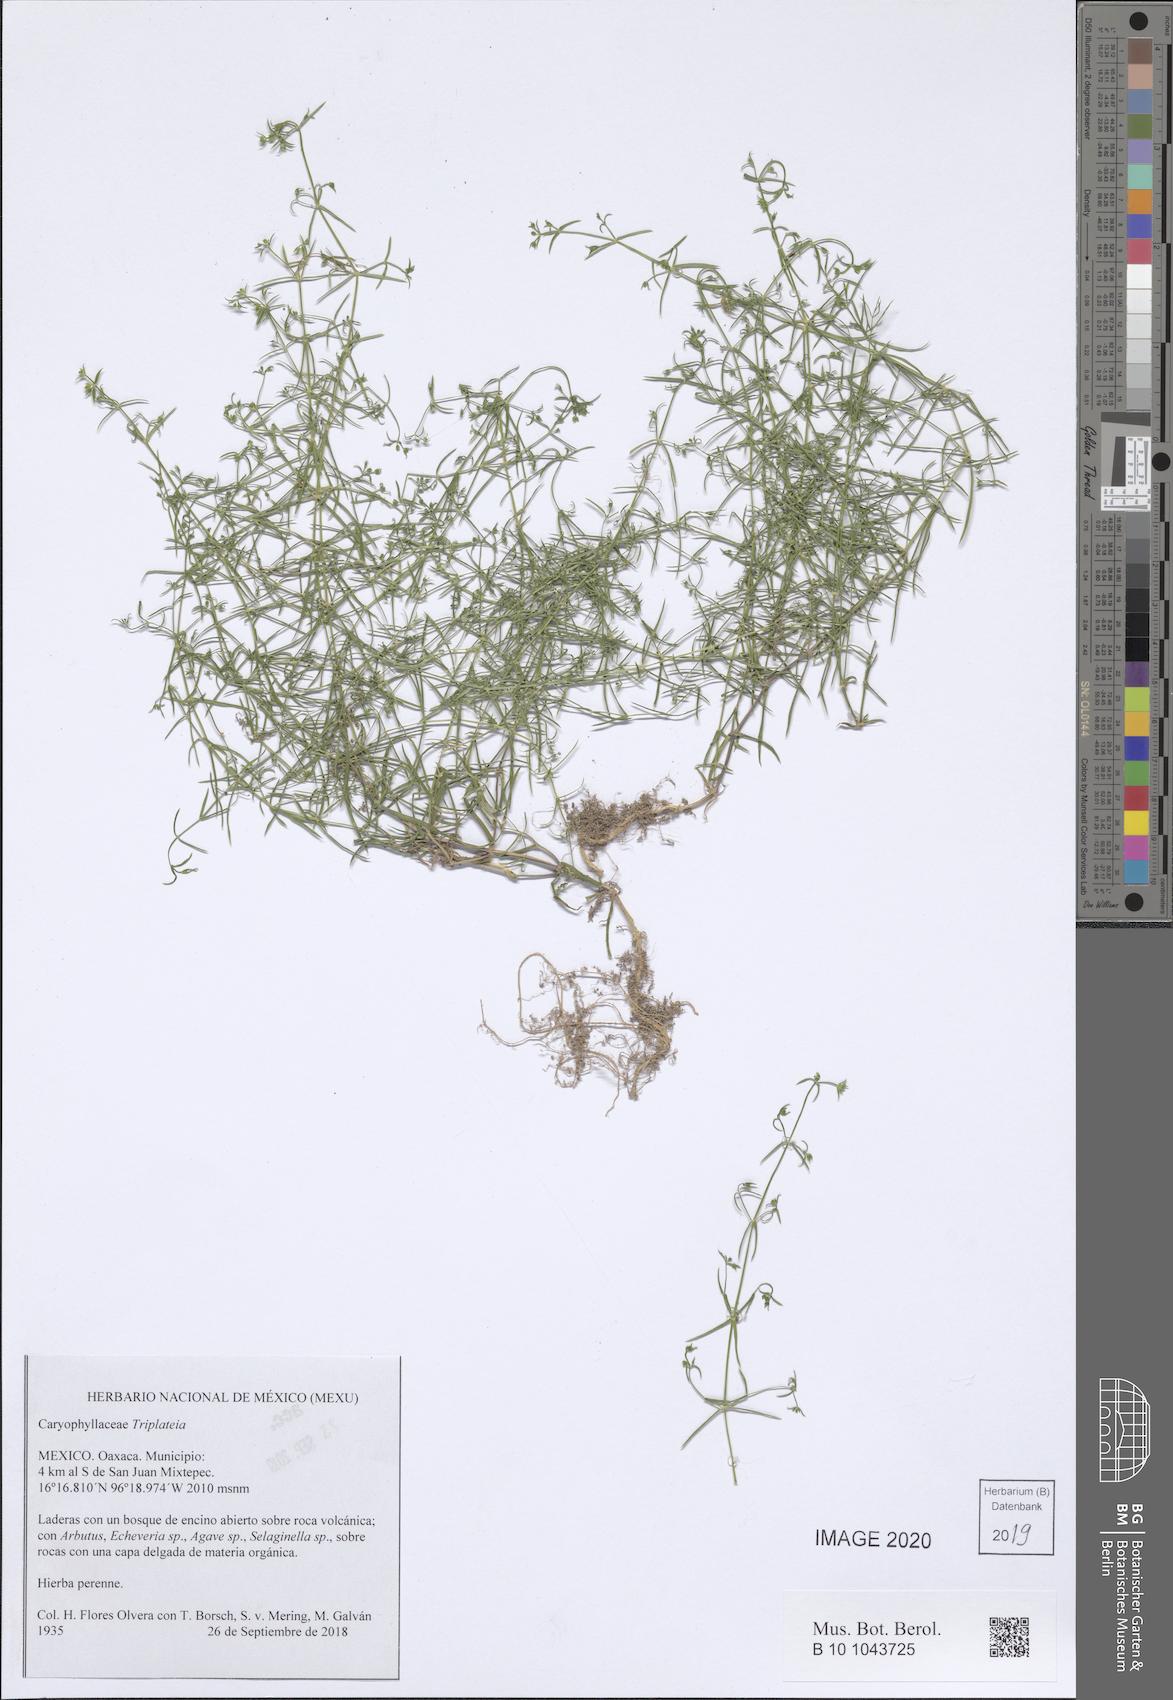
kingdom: Plantae
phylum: Tracheophyta
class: Magnoliopsida
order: Caryophyllales
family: Caryophyllaceae
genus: Triplateia
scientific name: Triplateia
